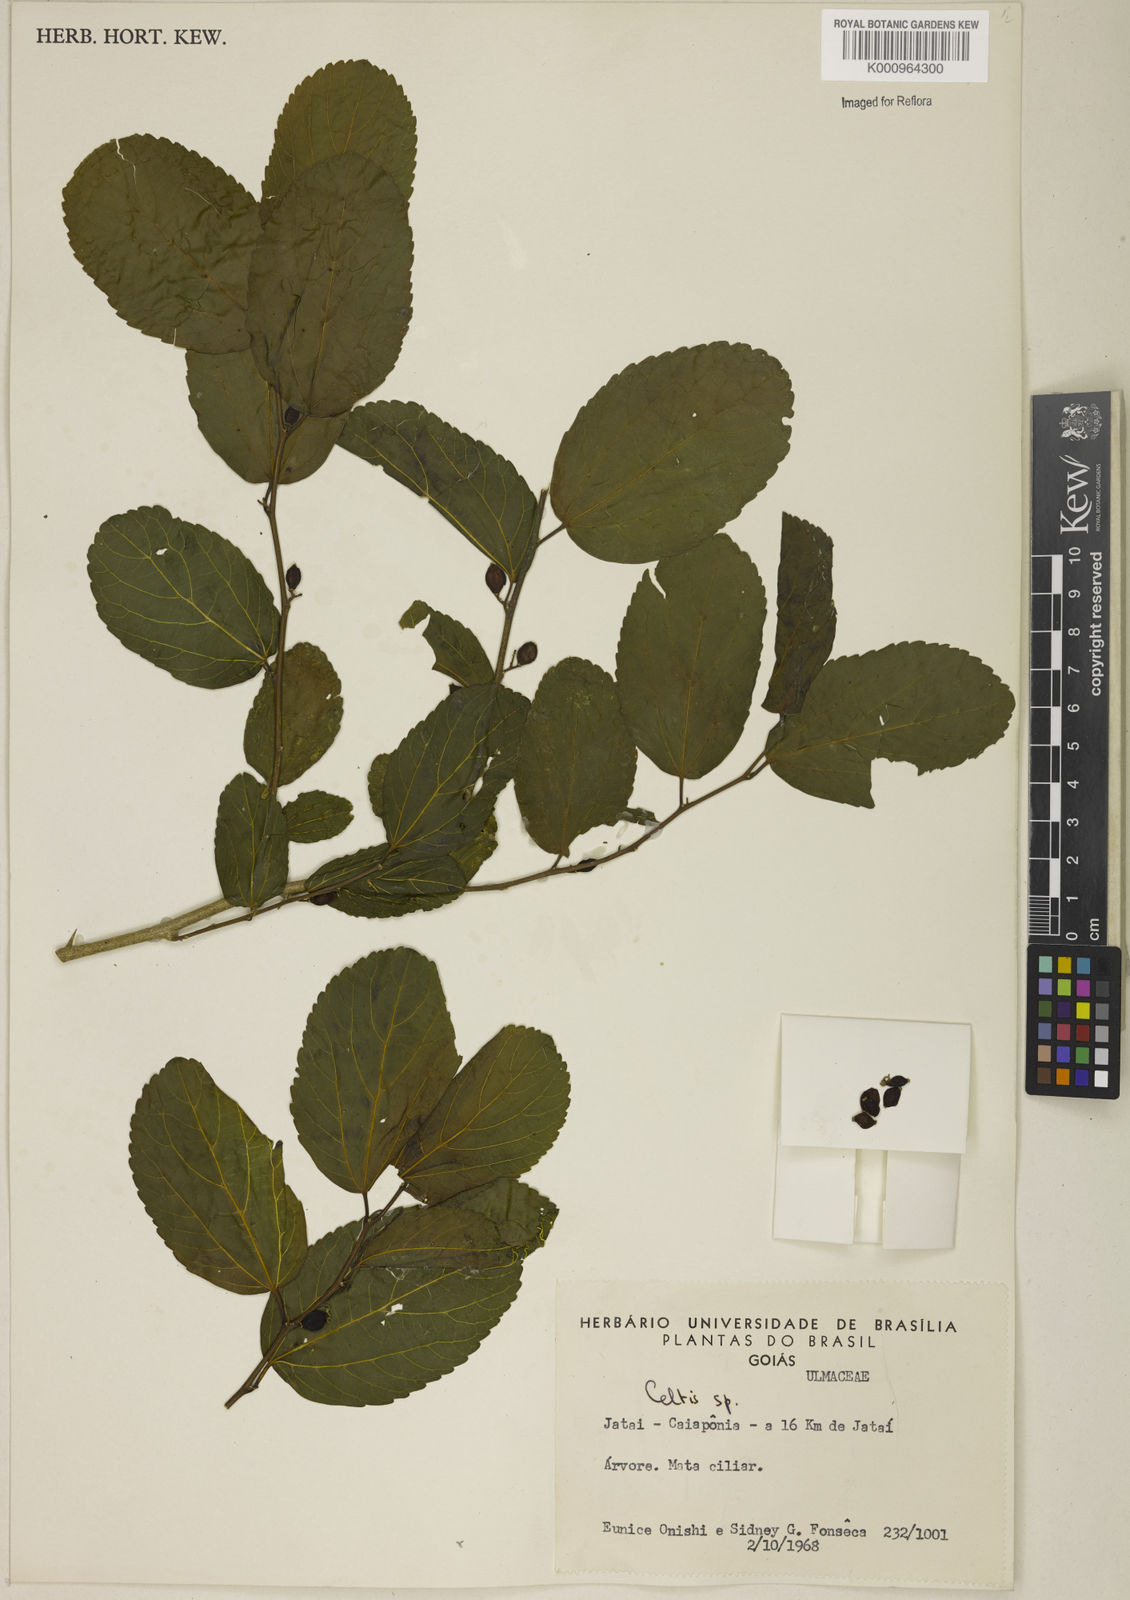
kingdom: Plantae
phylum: Tracheophyta
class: Magnoliopsida
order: Rosales
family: Cannabaceae
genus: Celtis
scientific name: Celtis
